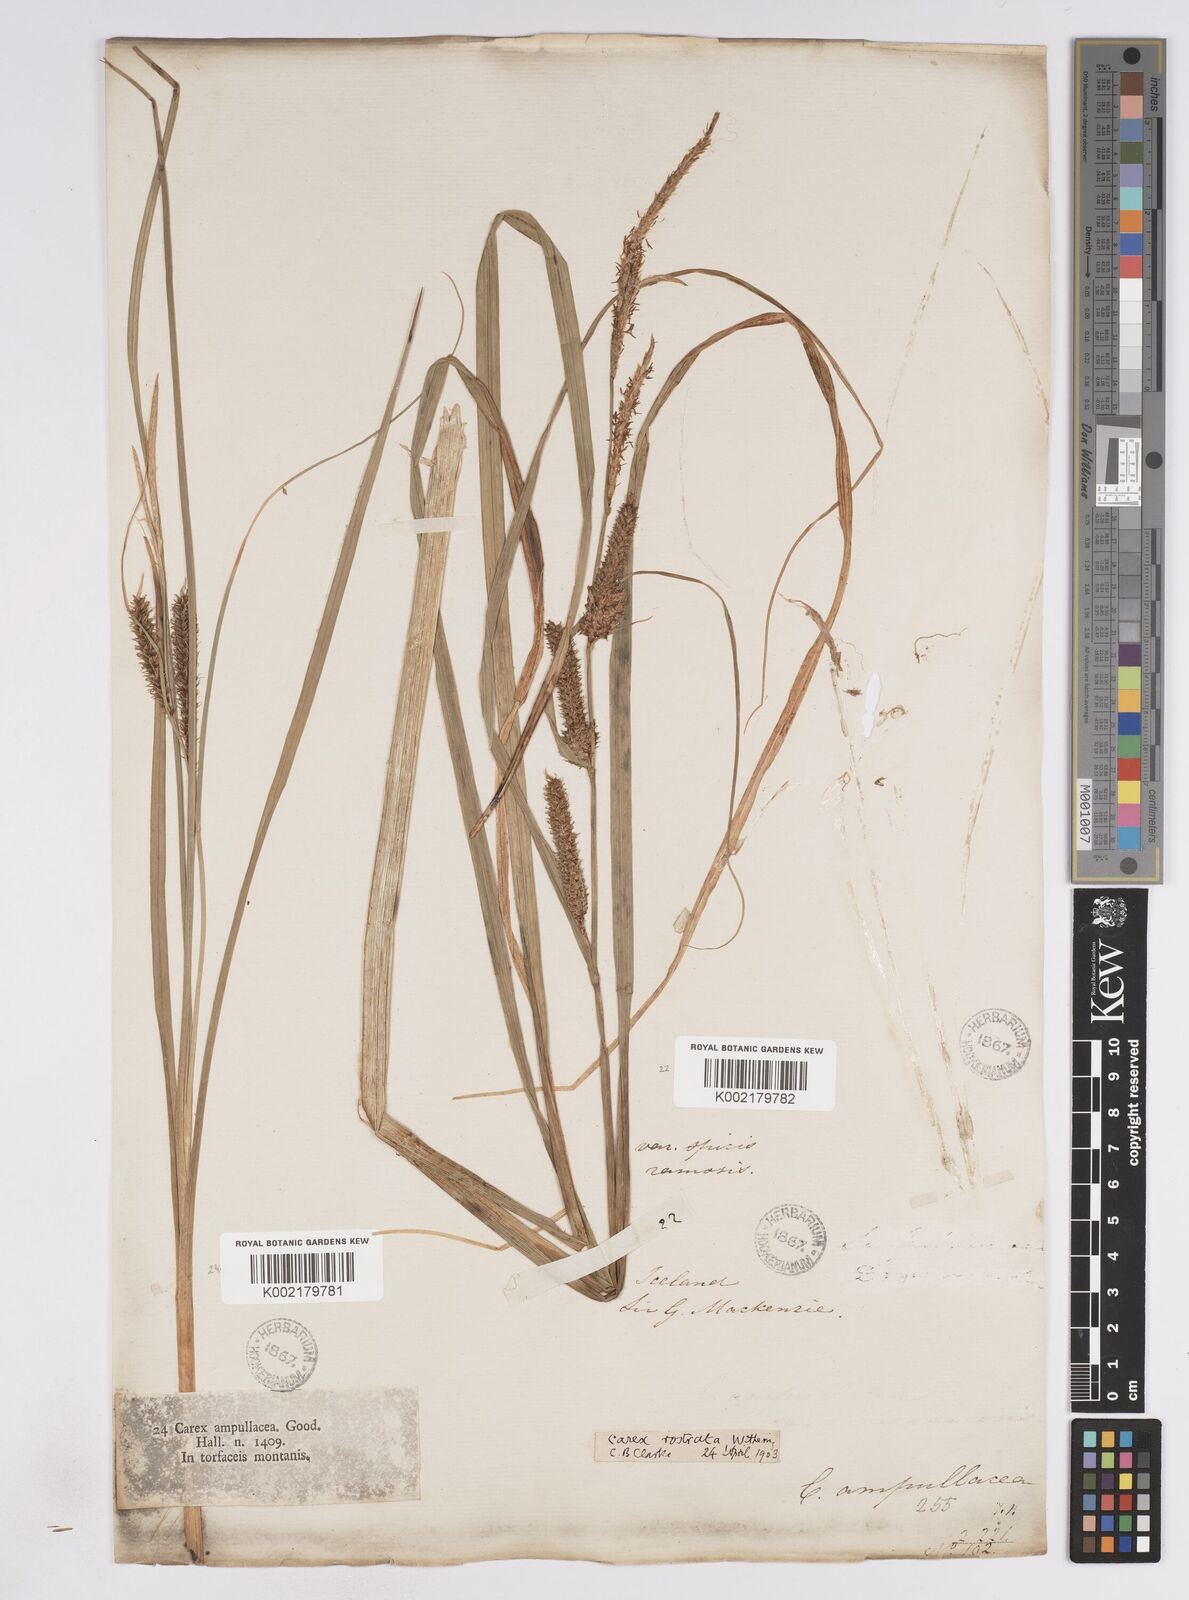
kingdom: Plantae
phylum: Tracheophyta
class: Liliopsida
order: Poales
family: Cyperaceae
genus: Carex
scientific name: Carex rostrata
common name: Bottle sedge
